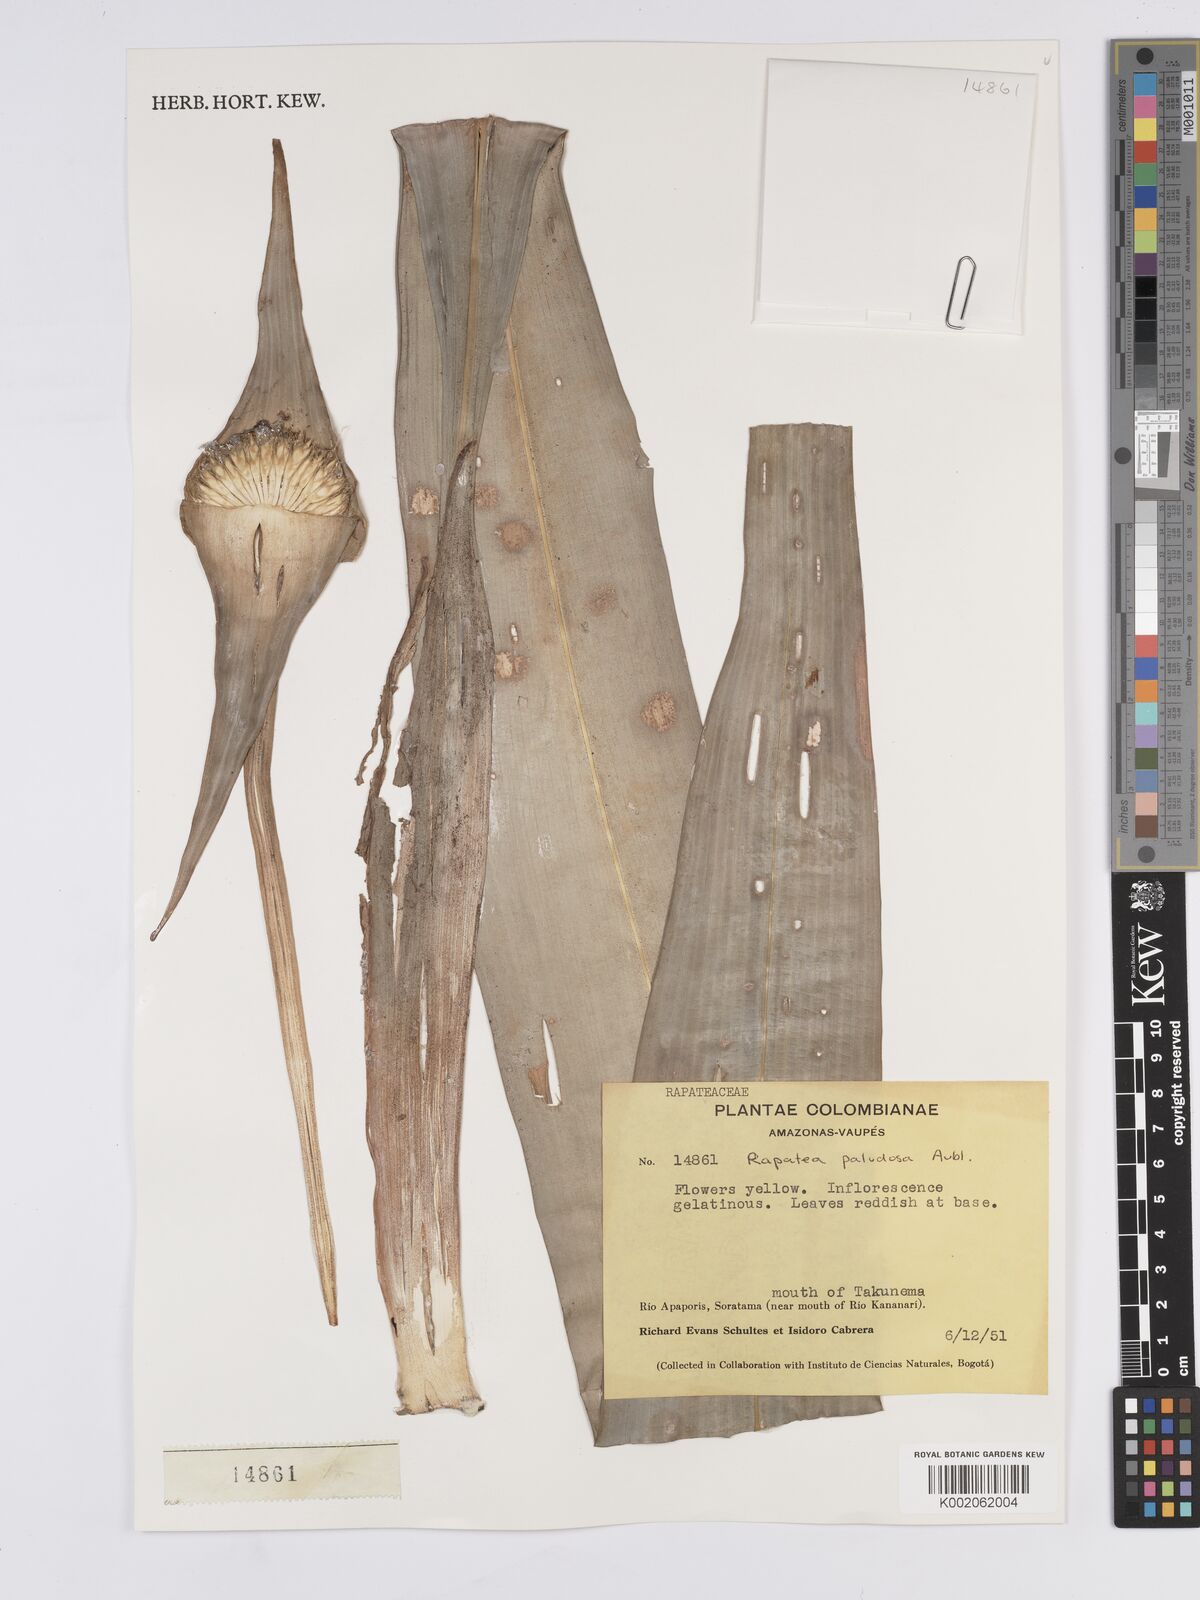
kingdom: Plantae
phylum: Tracheophyta
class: Liliopsida
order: Poales
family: Rapateaceae
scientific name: Rapateaceae
